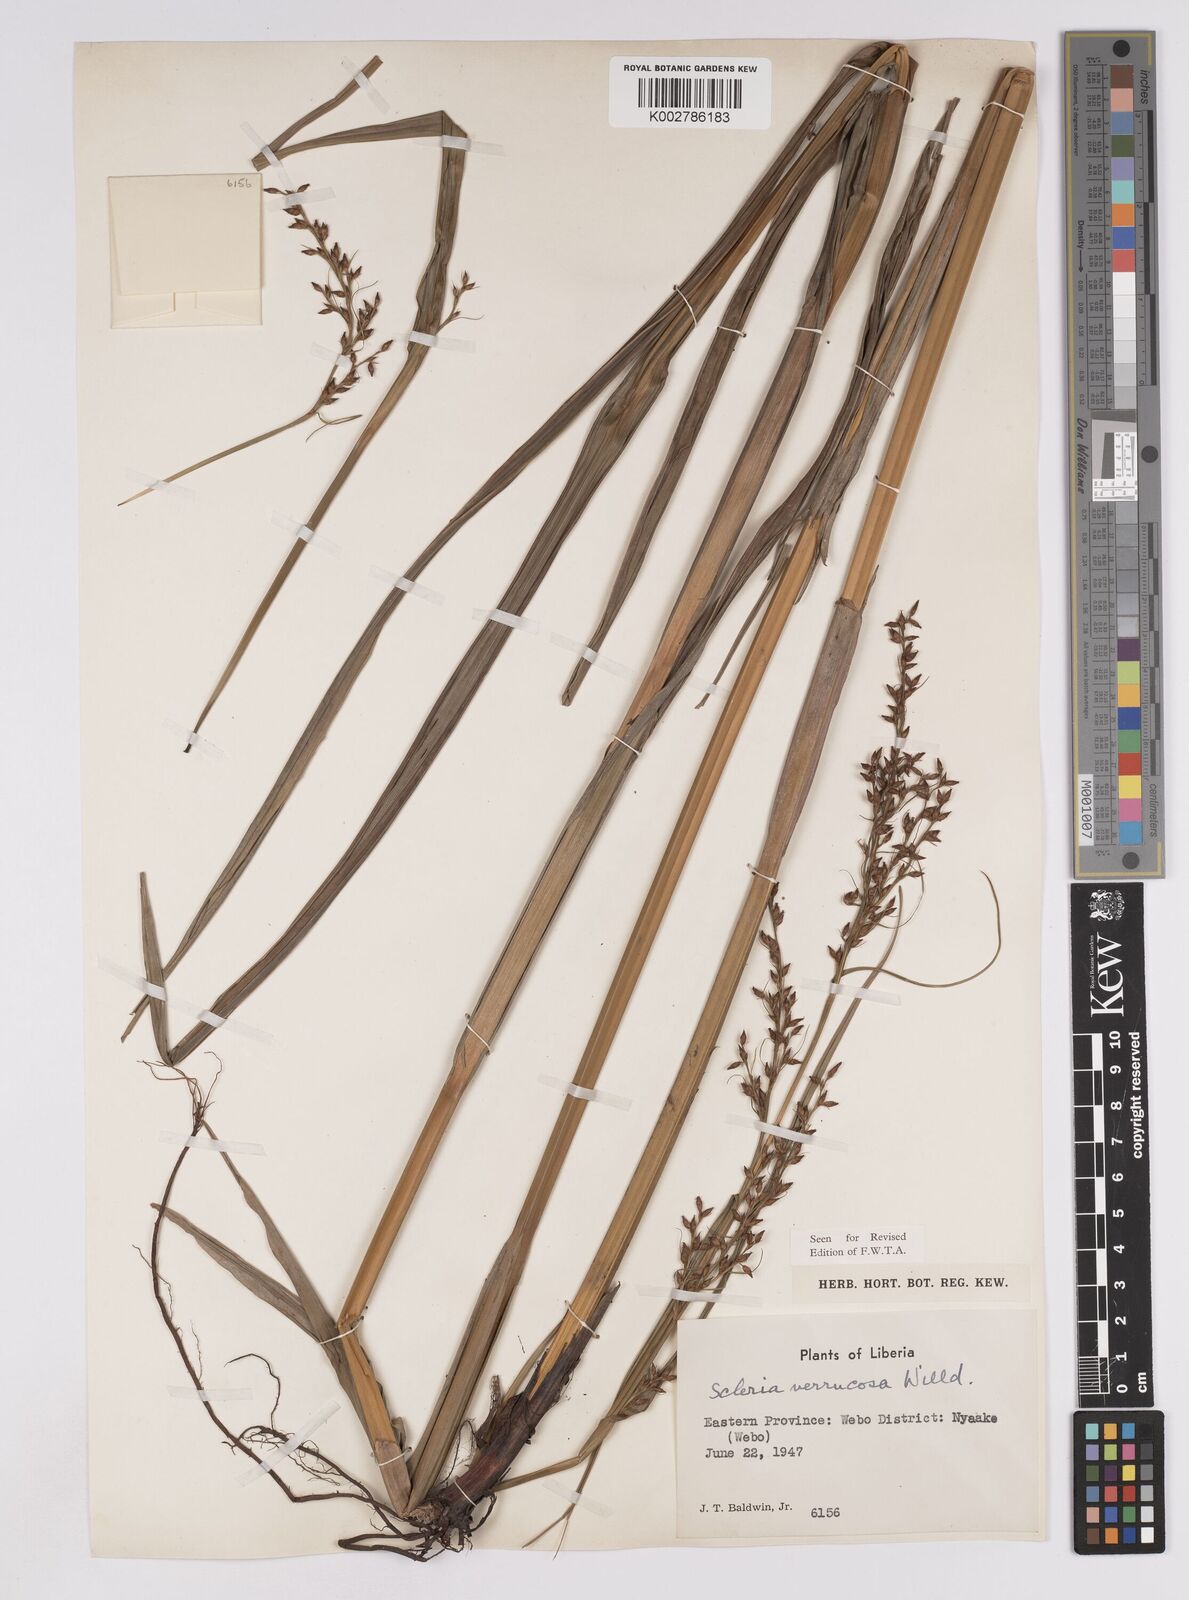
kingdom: Plantae
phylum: Tracheophyta
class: Liliopsida
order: Poales
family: Cyperaceae
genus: Scleria
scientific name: Scleria verrucosa
